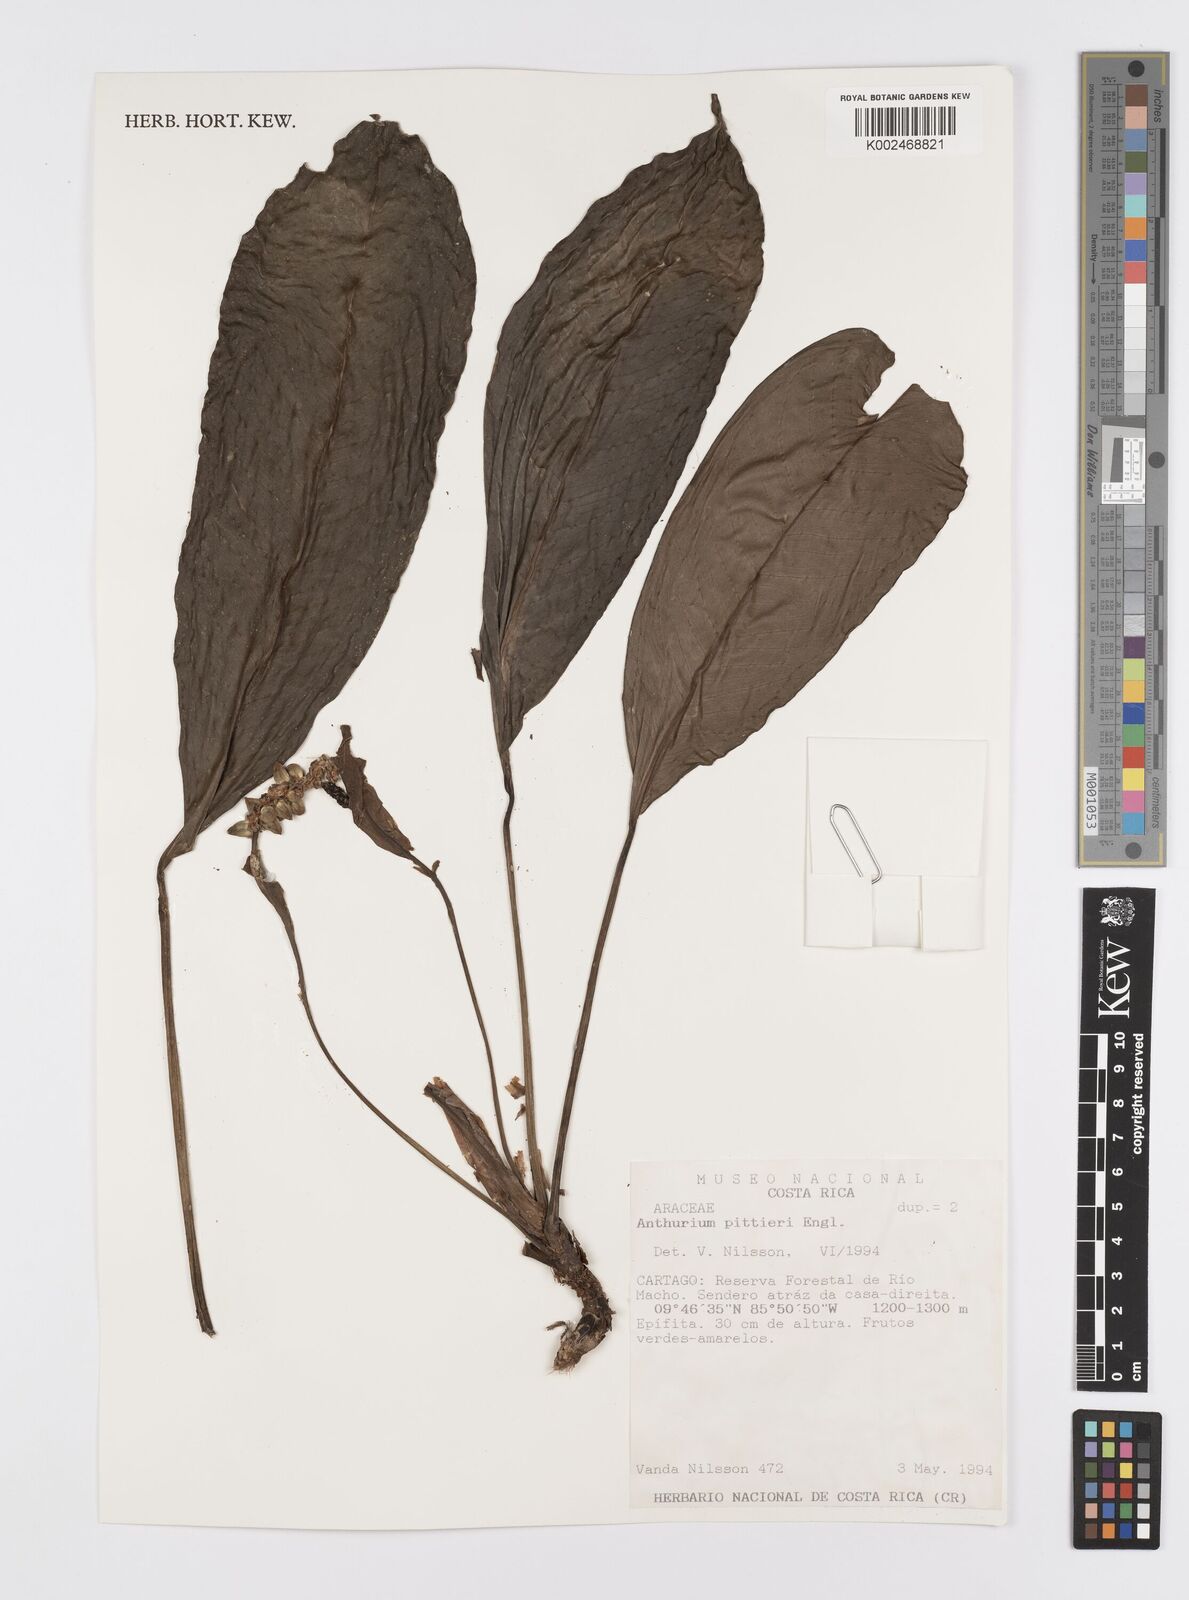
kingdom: Plantae
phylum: Tracheophyta
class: Liliopsida
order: Alismatales
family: Araceae
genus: Anthurium
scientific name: Anthurium pittieri
